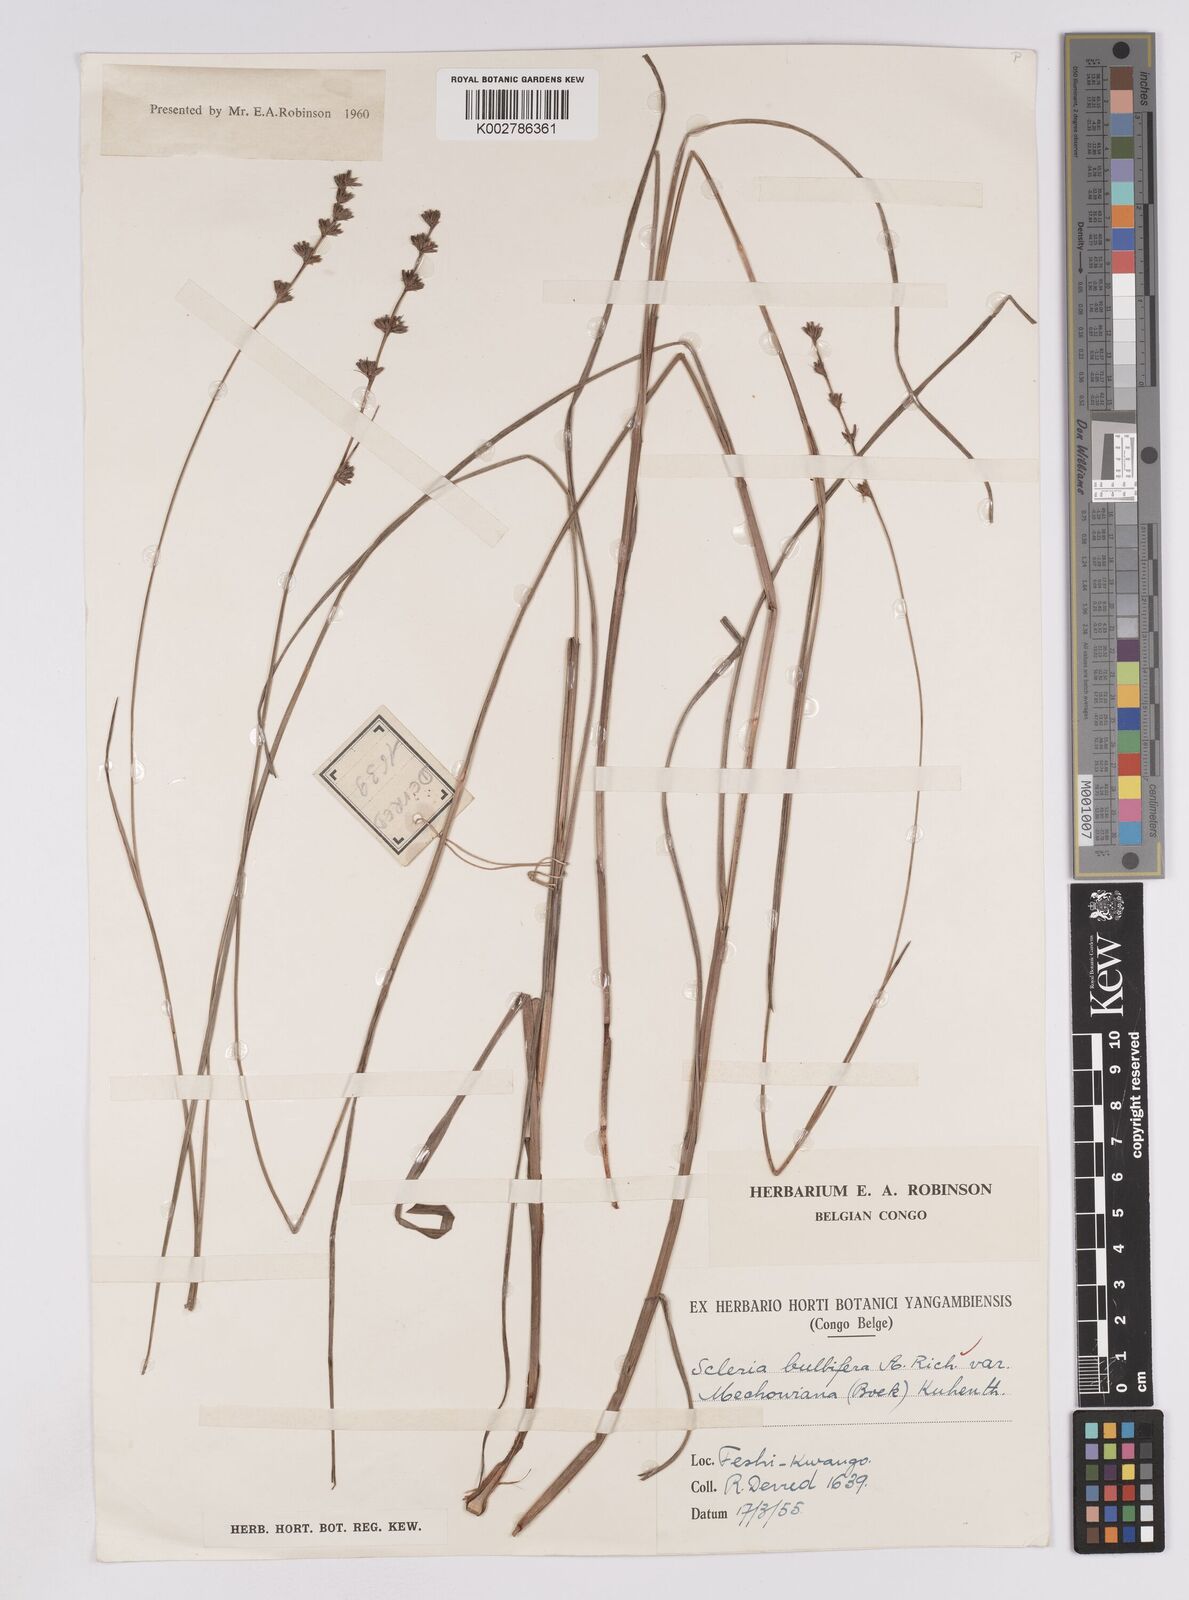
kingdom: Plantae
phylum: Tracheophyta
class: Liliopsida
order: Poales
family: Cyperaceae
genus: Scleria
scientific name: Scleria bulbifera
